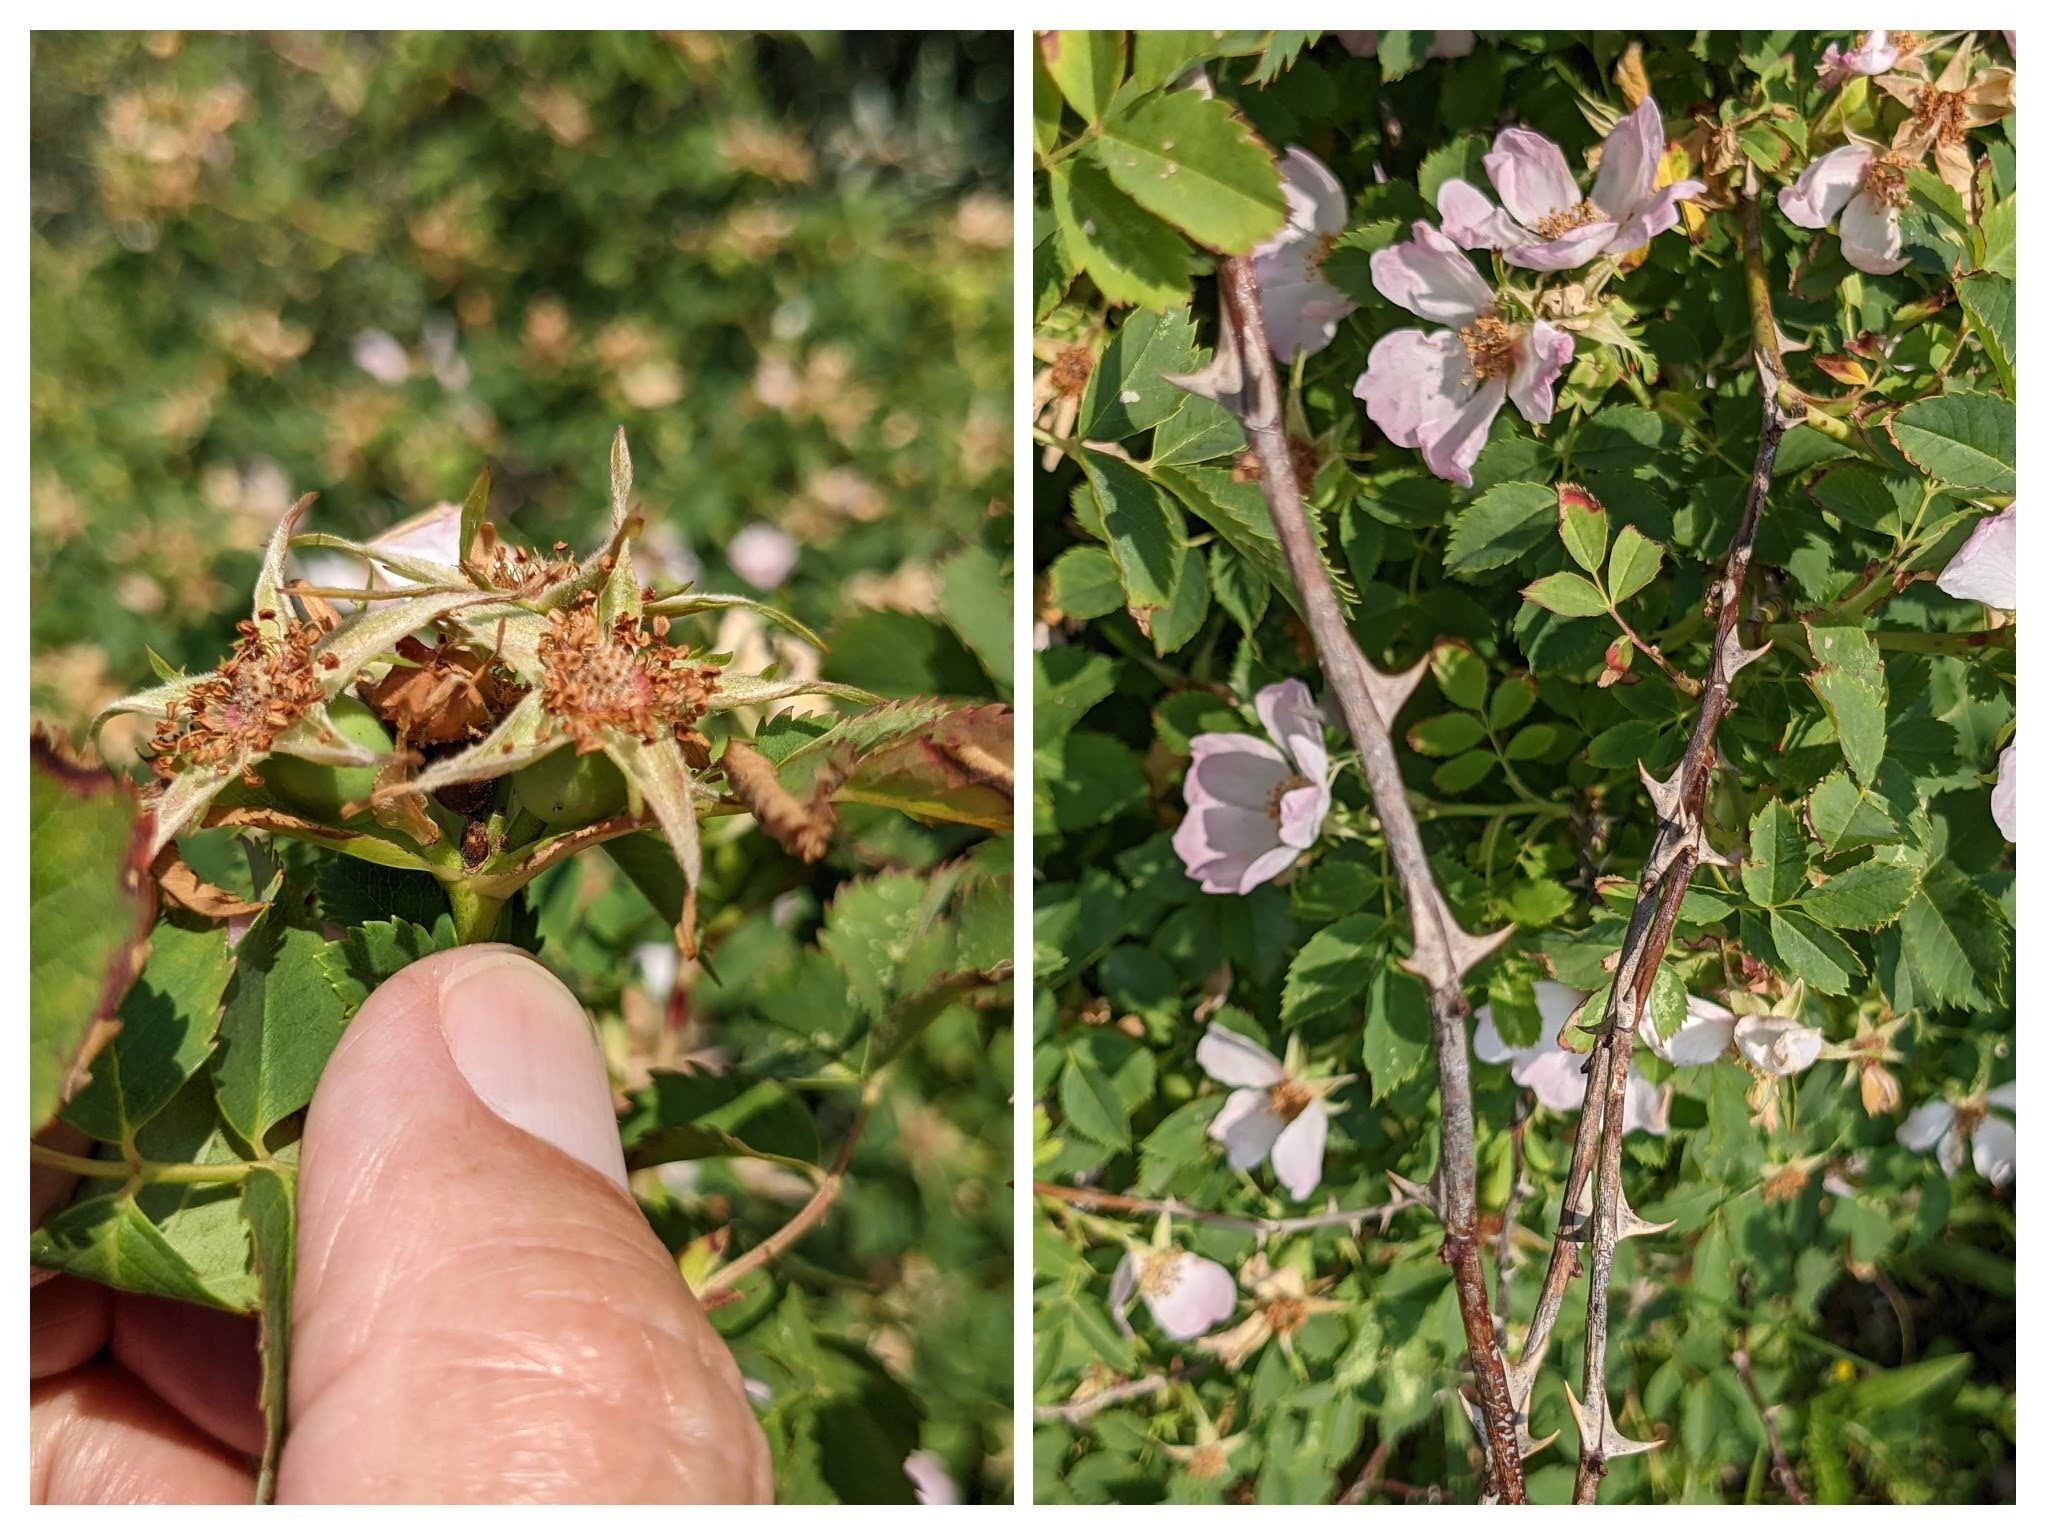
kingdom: Plantae
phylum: Tracheophyta
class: Magnoliopsida
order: Rosales
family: Rosaceae
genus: Rosa
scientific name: Rosa dumalis
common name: Blågrøn rose (underart)
